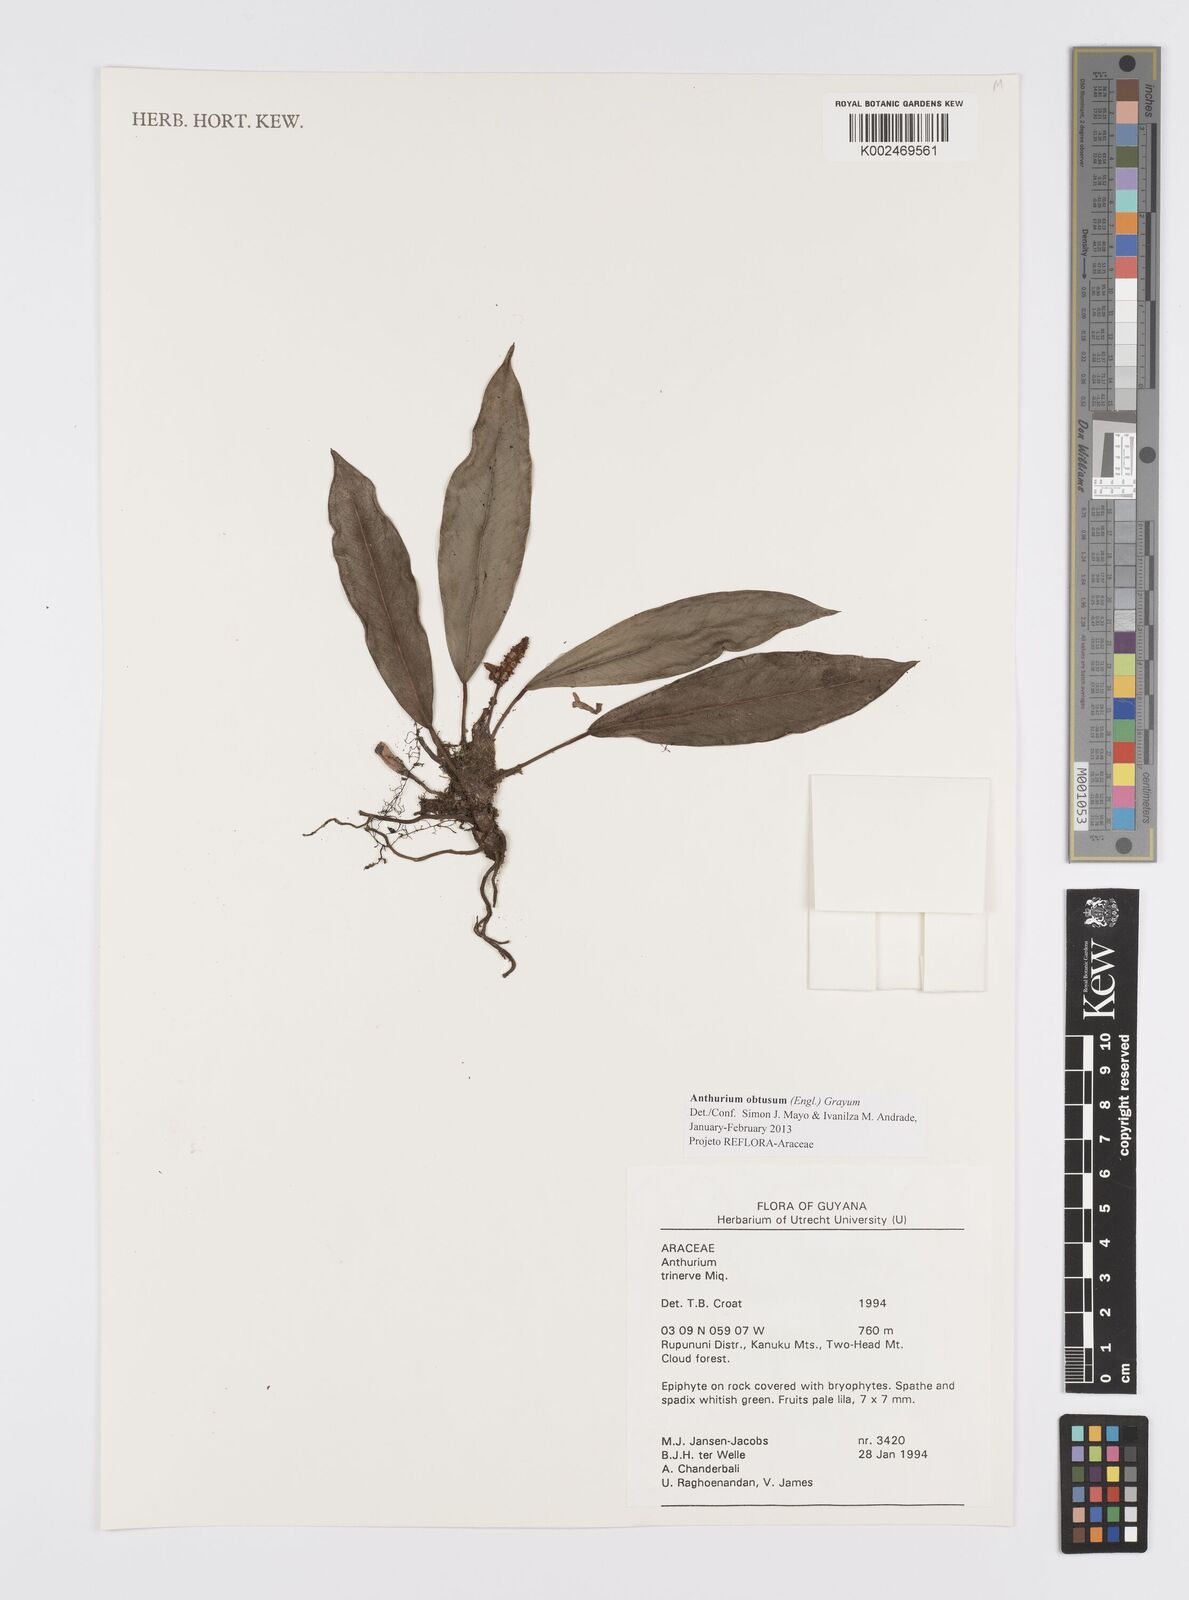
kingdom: Plantae
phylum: Tracheophyta
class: Liliopsida
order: Alismatales
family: Araceae
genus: Anthurium
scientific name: Anthurium obtusum
